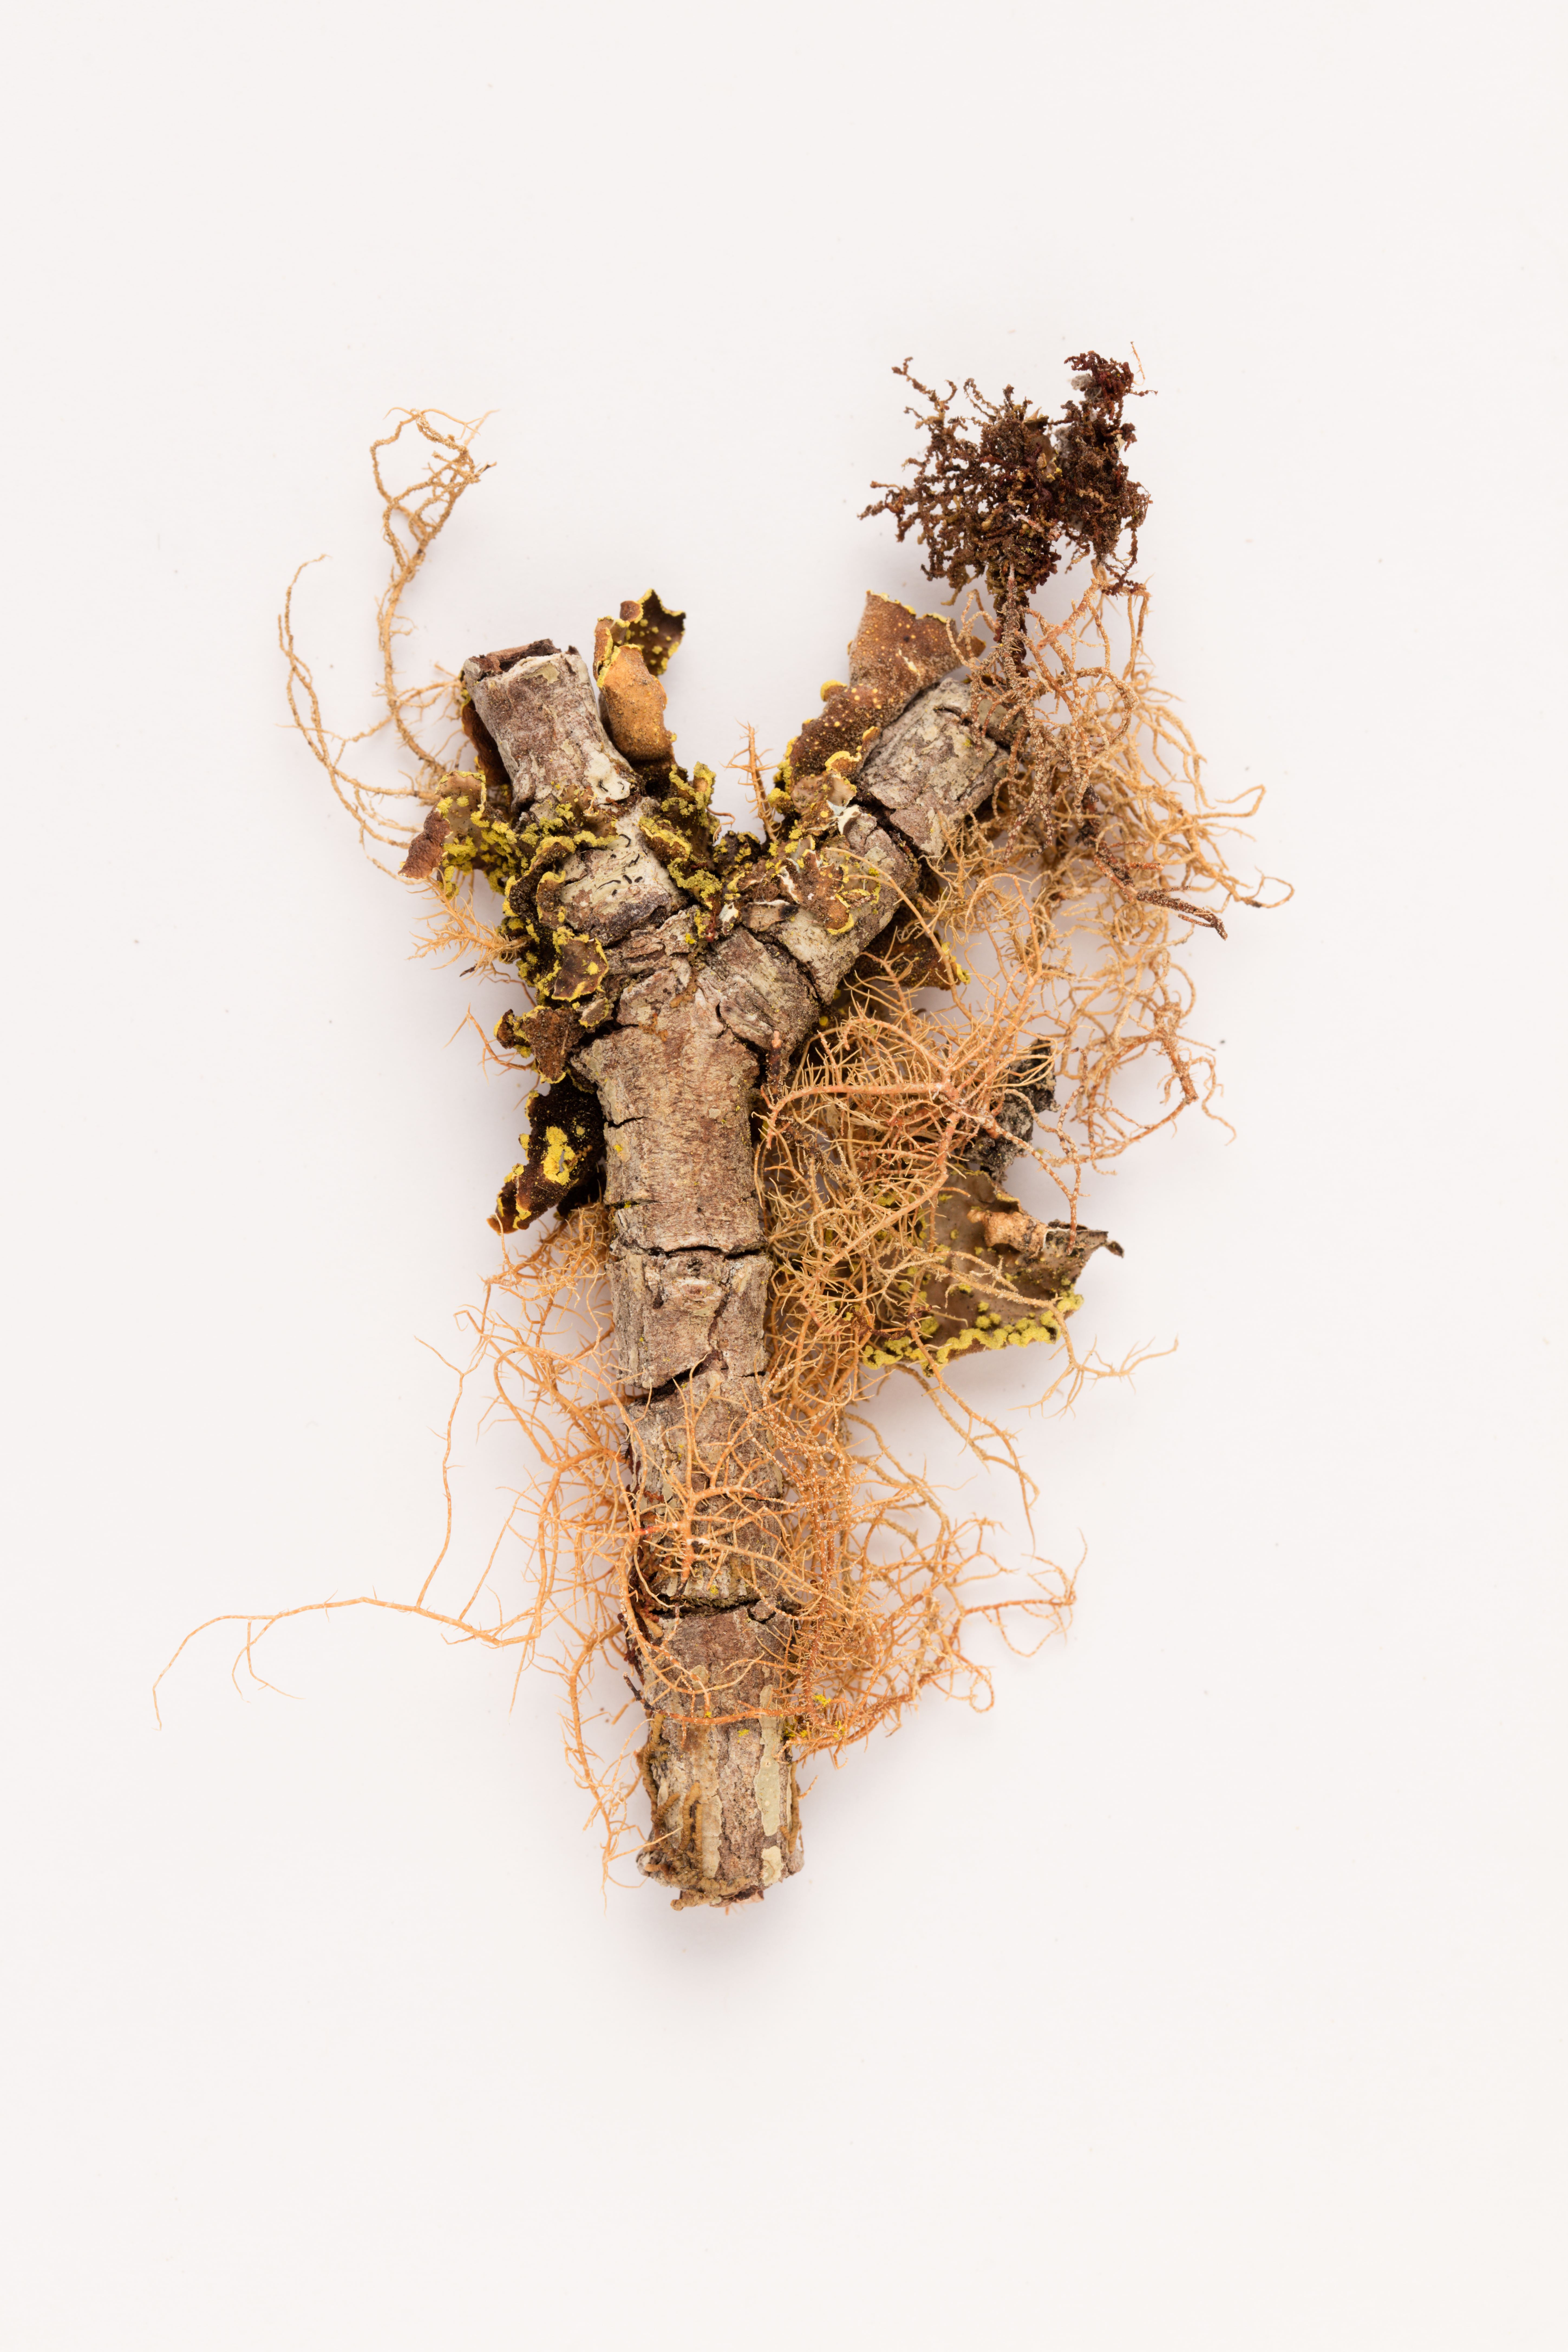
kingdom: Fungi
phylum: Ascomycota
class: Lecanoromycetes
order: Peltigerales
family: Lobariaceae
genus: Pseudocyphellaria
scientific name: Pseudocyphellaria crocata
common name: Golden specklebelly
